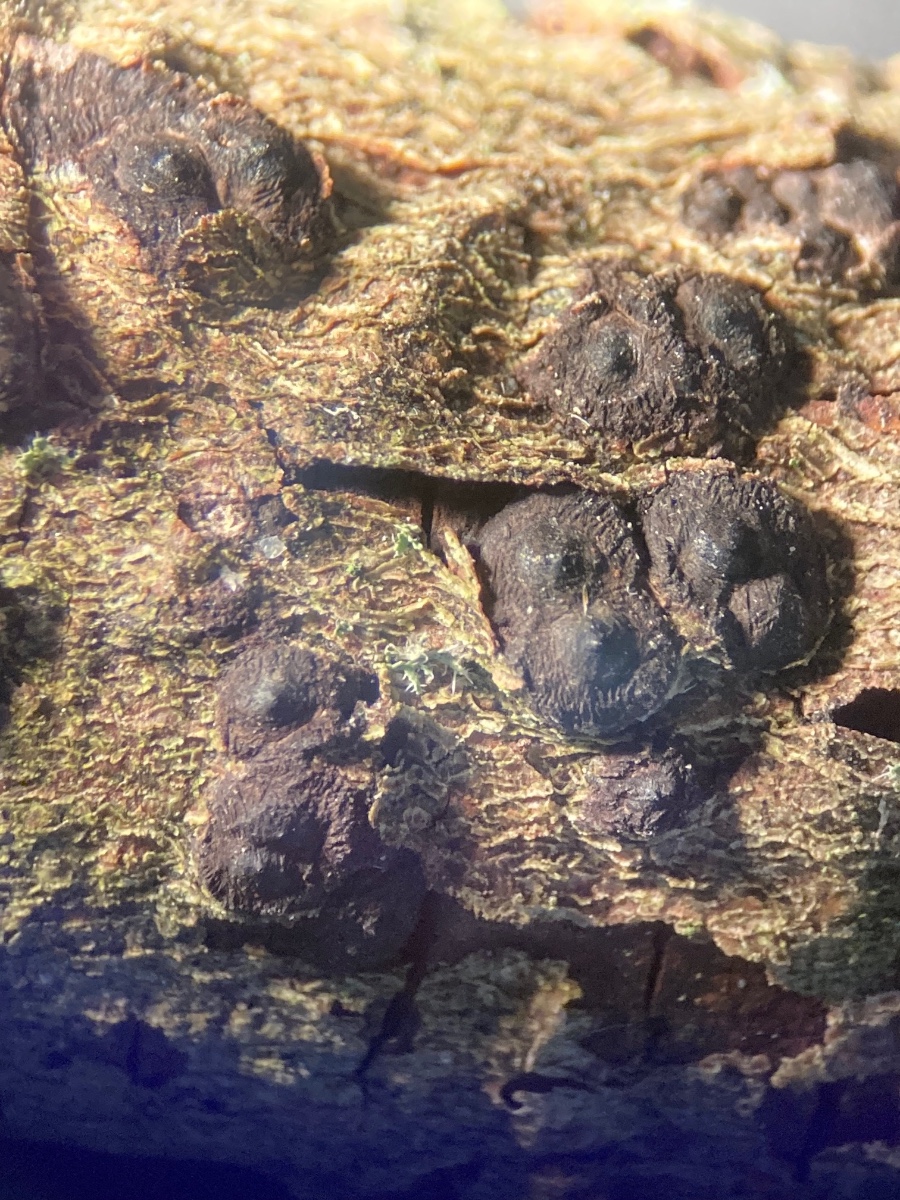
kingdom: Fungi
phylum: Ascomycota
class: Sordariomycetes
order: Xylariales
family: Xylariaceae
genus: Entoleuca
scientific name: Entoleuca mammata
